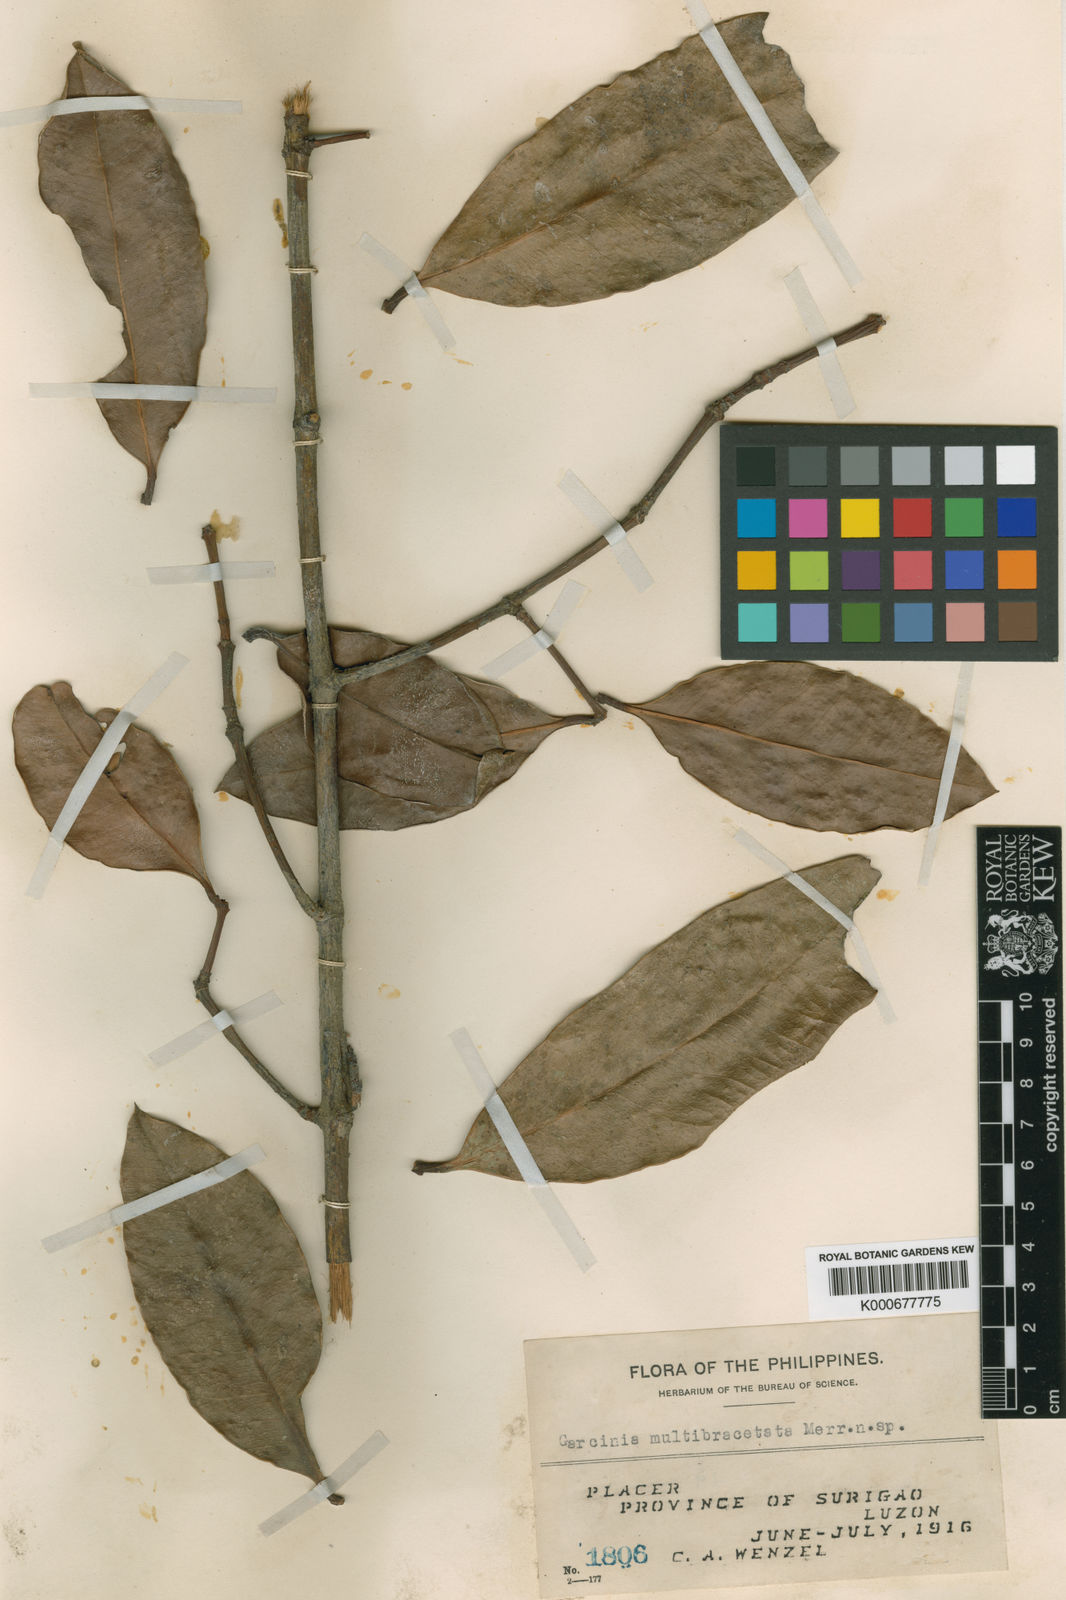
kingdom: Plantae
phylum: Tracheophyta
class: Magnoliopsida
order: Malpighiales
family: Clusiaceae
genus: Garcinia
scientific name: Garcinia multibracteolata
